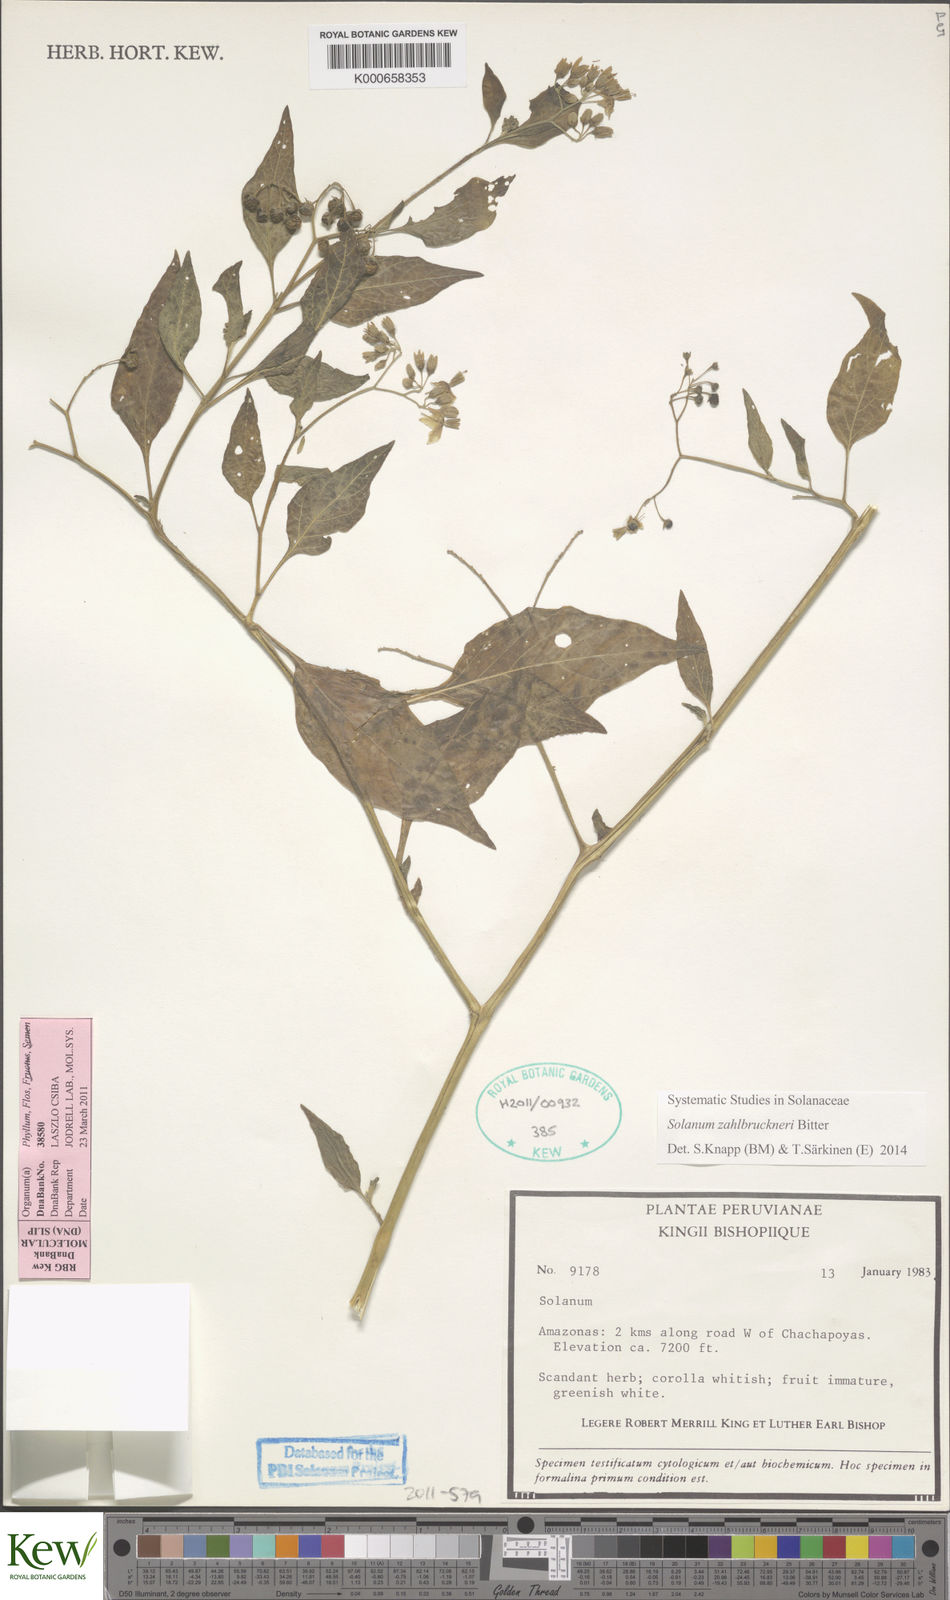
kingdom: Plantae
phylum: Tracheophyta
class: Magnoliopsida
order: Solanales
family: Solanaceae
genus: Solanum
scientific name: Solanum aloysiifolium
